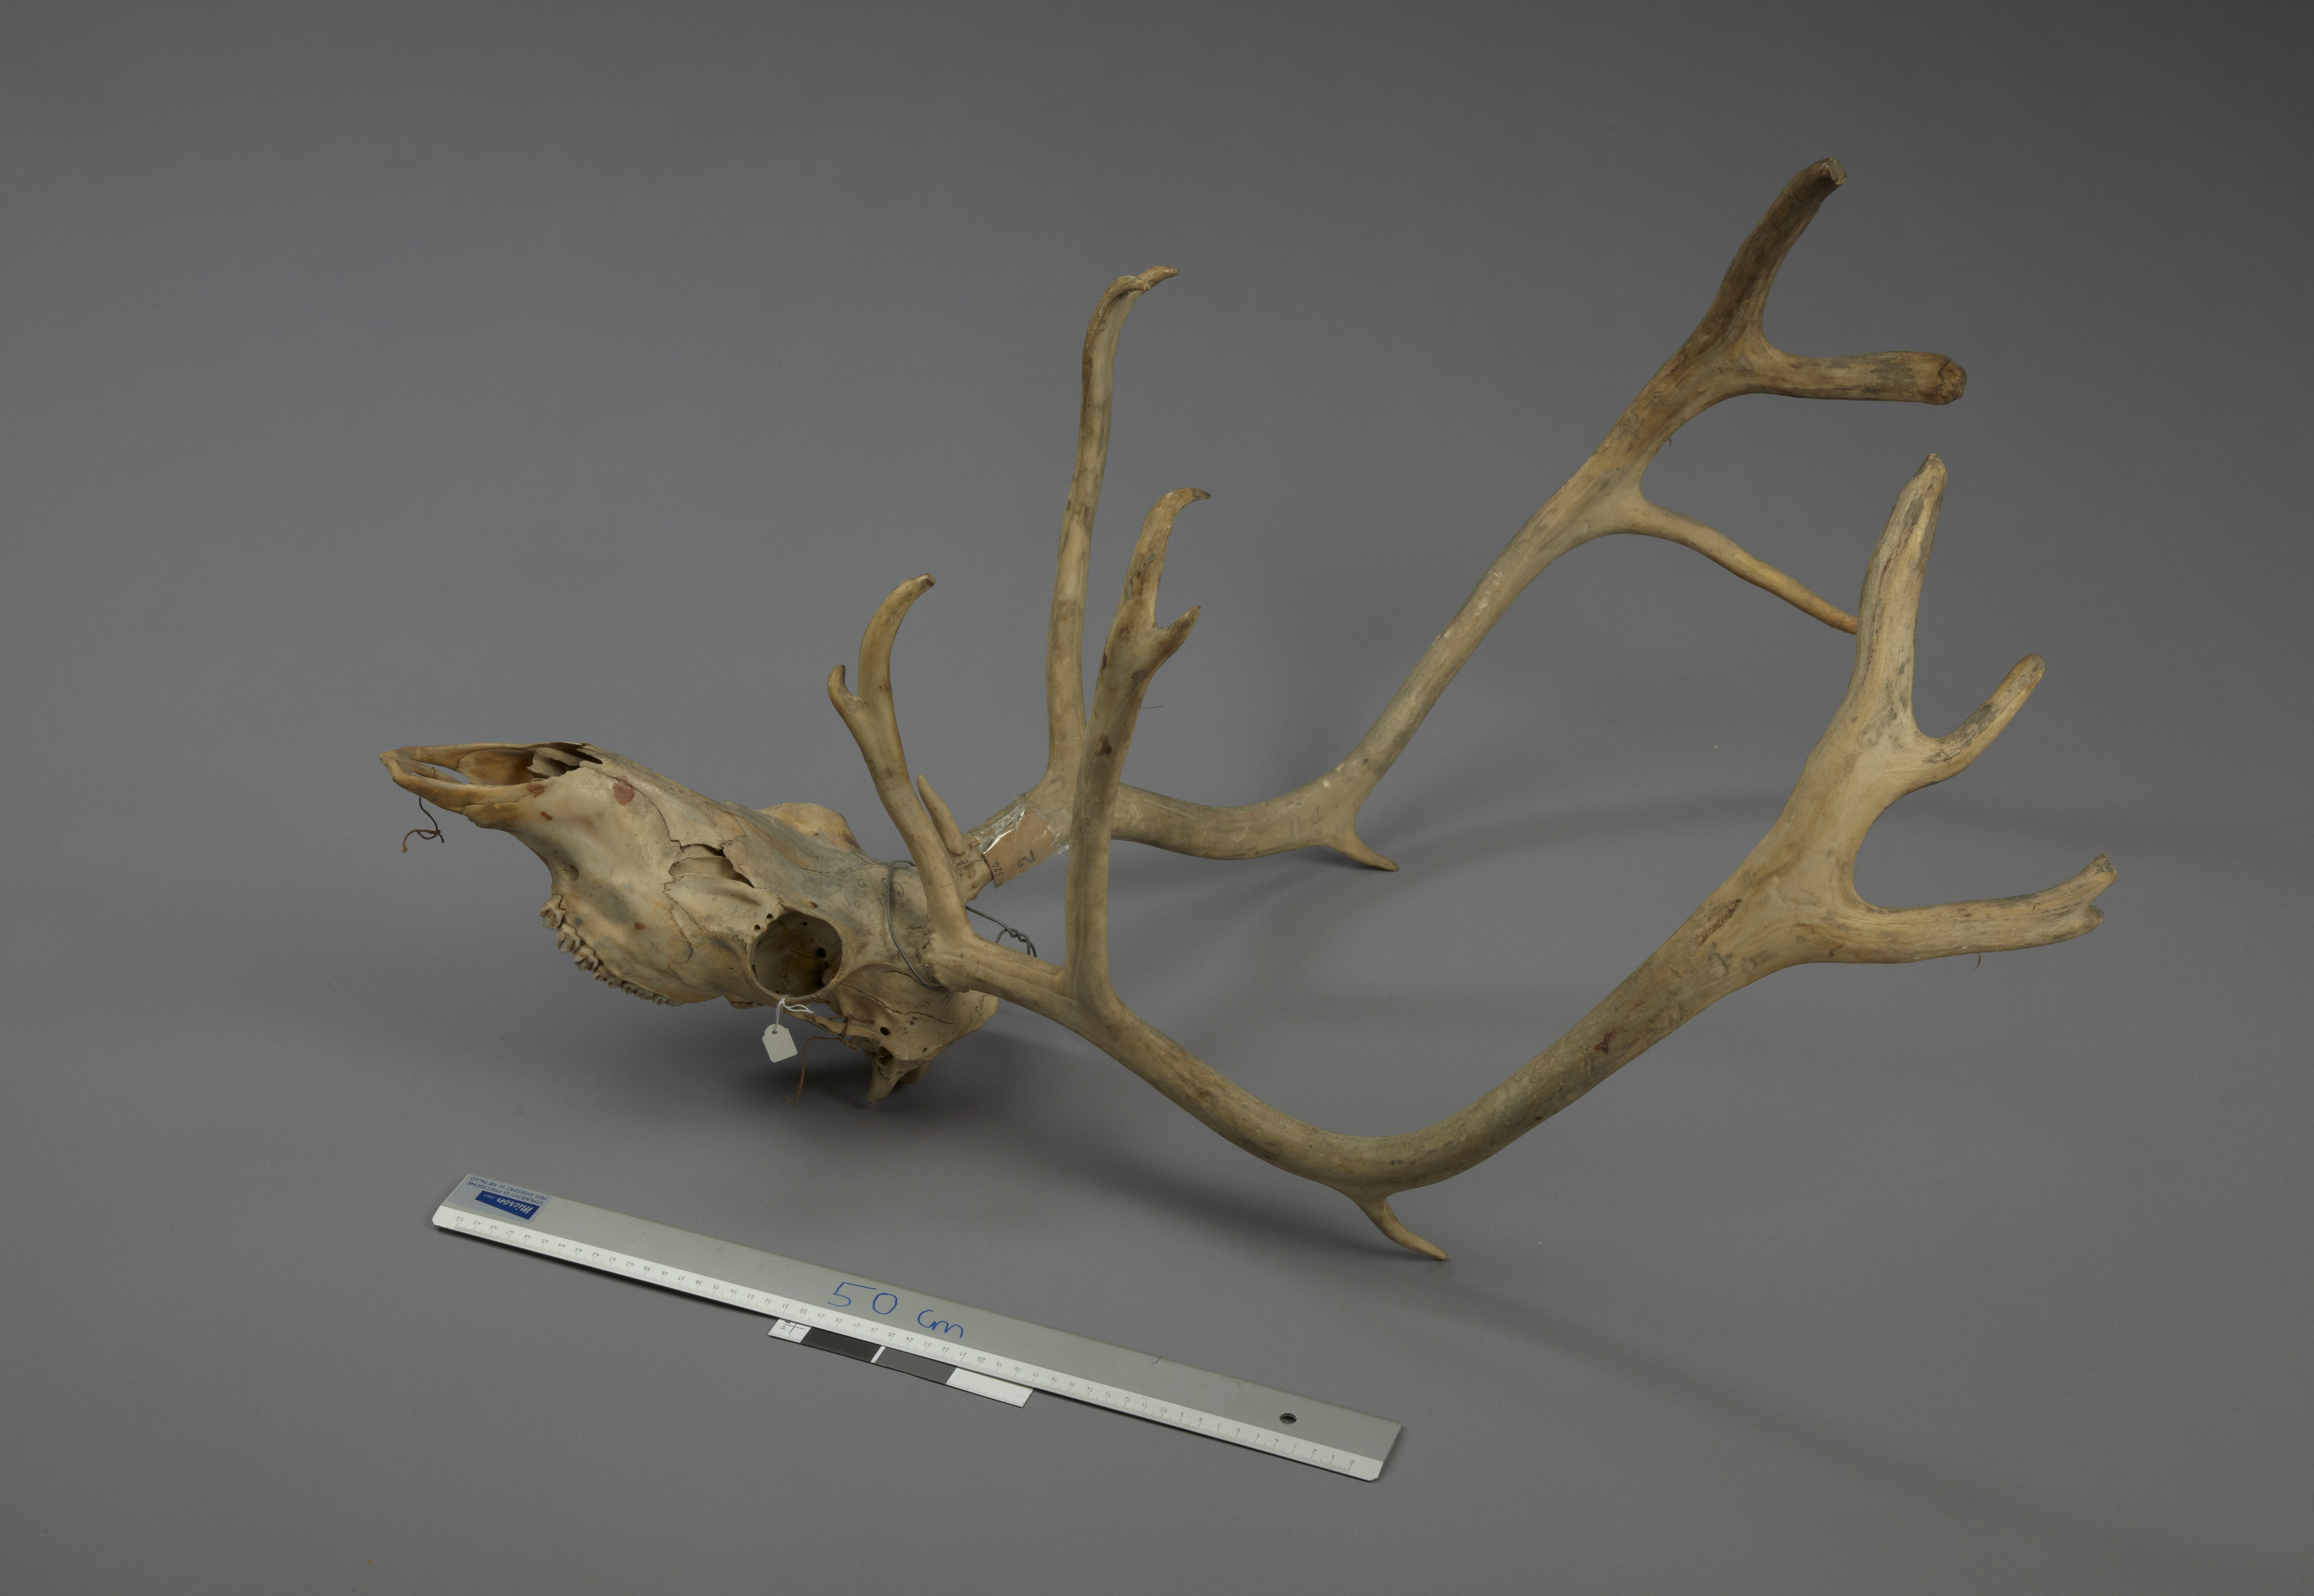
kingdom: Animalia
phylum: Chordata
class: Mammalia
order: Artiodactyla
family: Cervidae
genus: Rangifer
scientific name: Rangifer tarandus
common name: Reindeer
